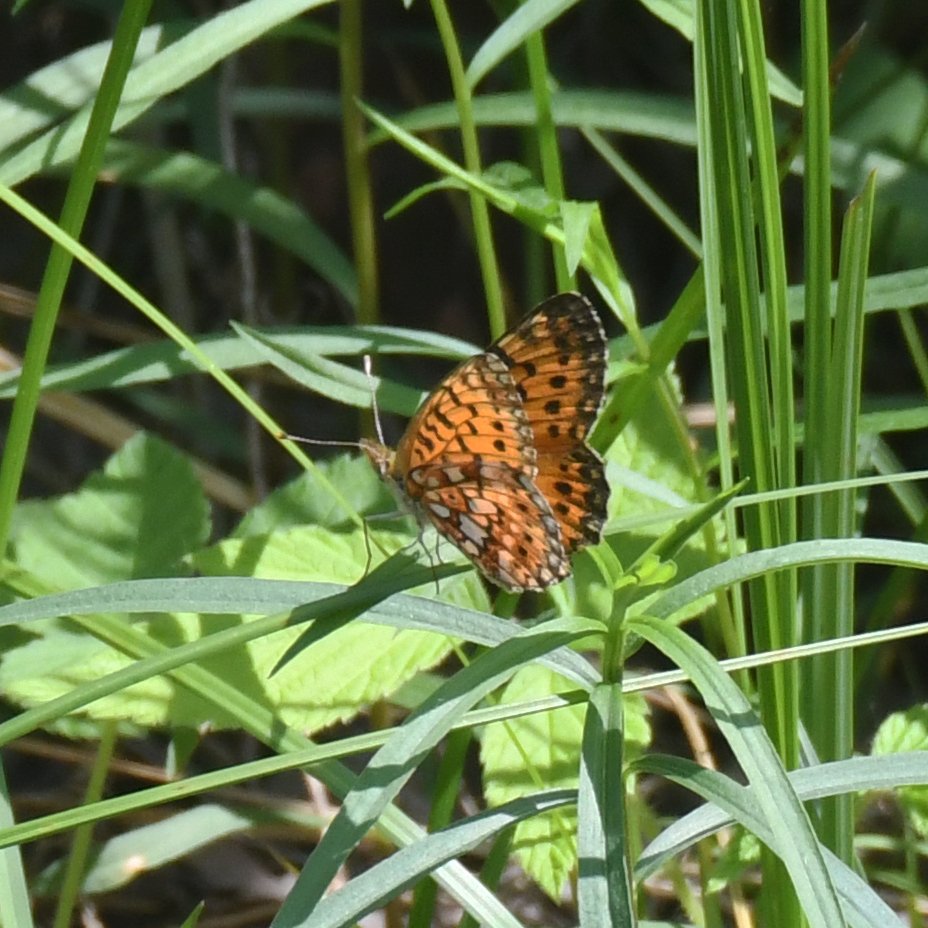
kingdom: Animalia
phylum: Arthropoda
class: Insecta
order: Lepidoptera
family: Nymphalidae
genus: Boloria
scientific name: Boloria selene
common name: Silver-bordered Fritillary
